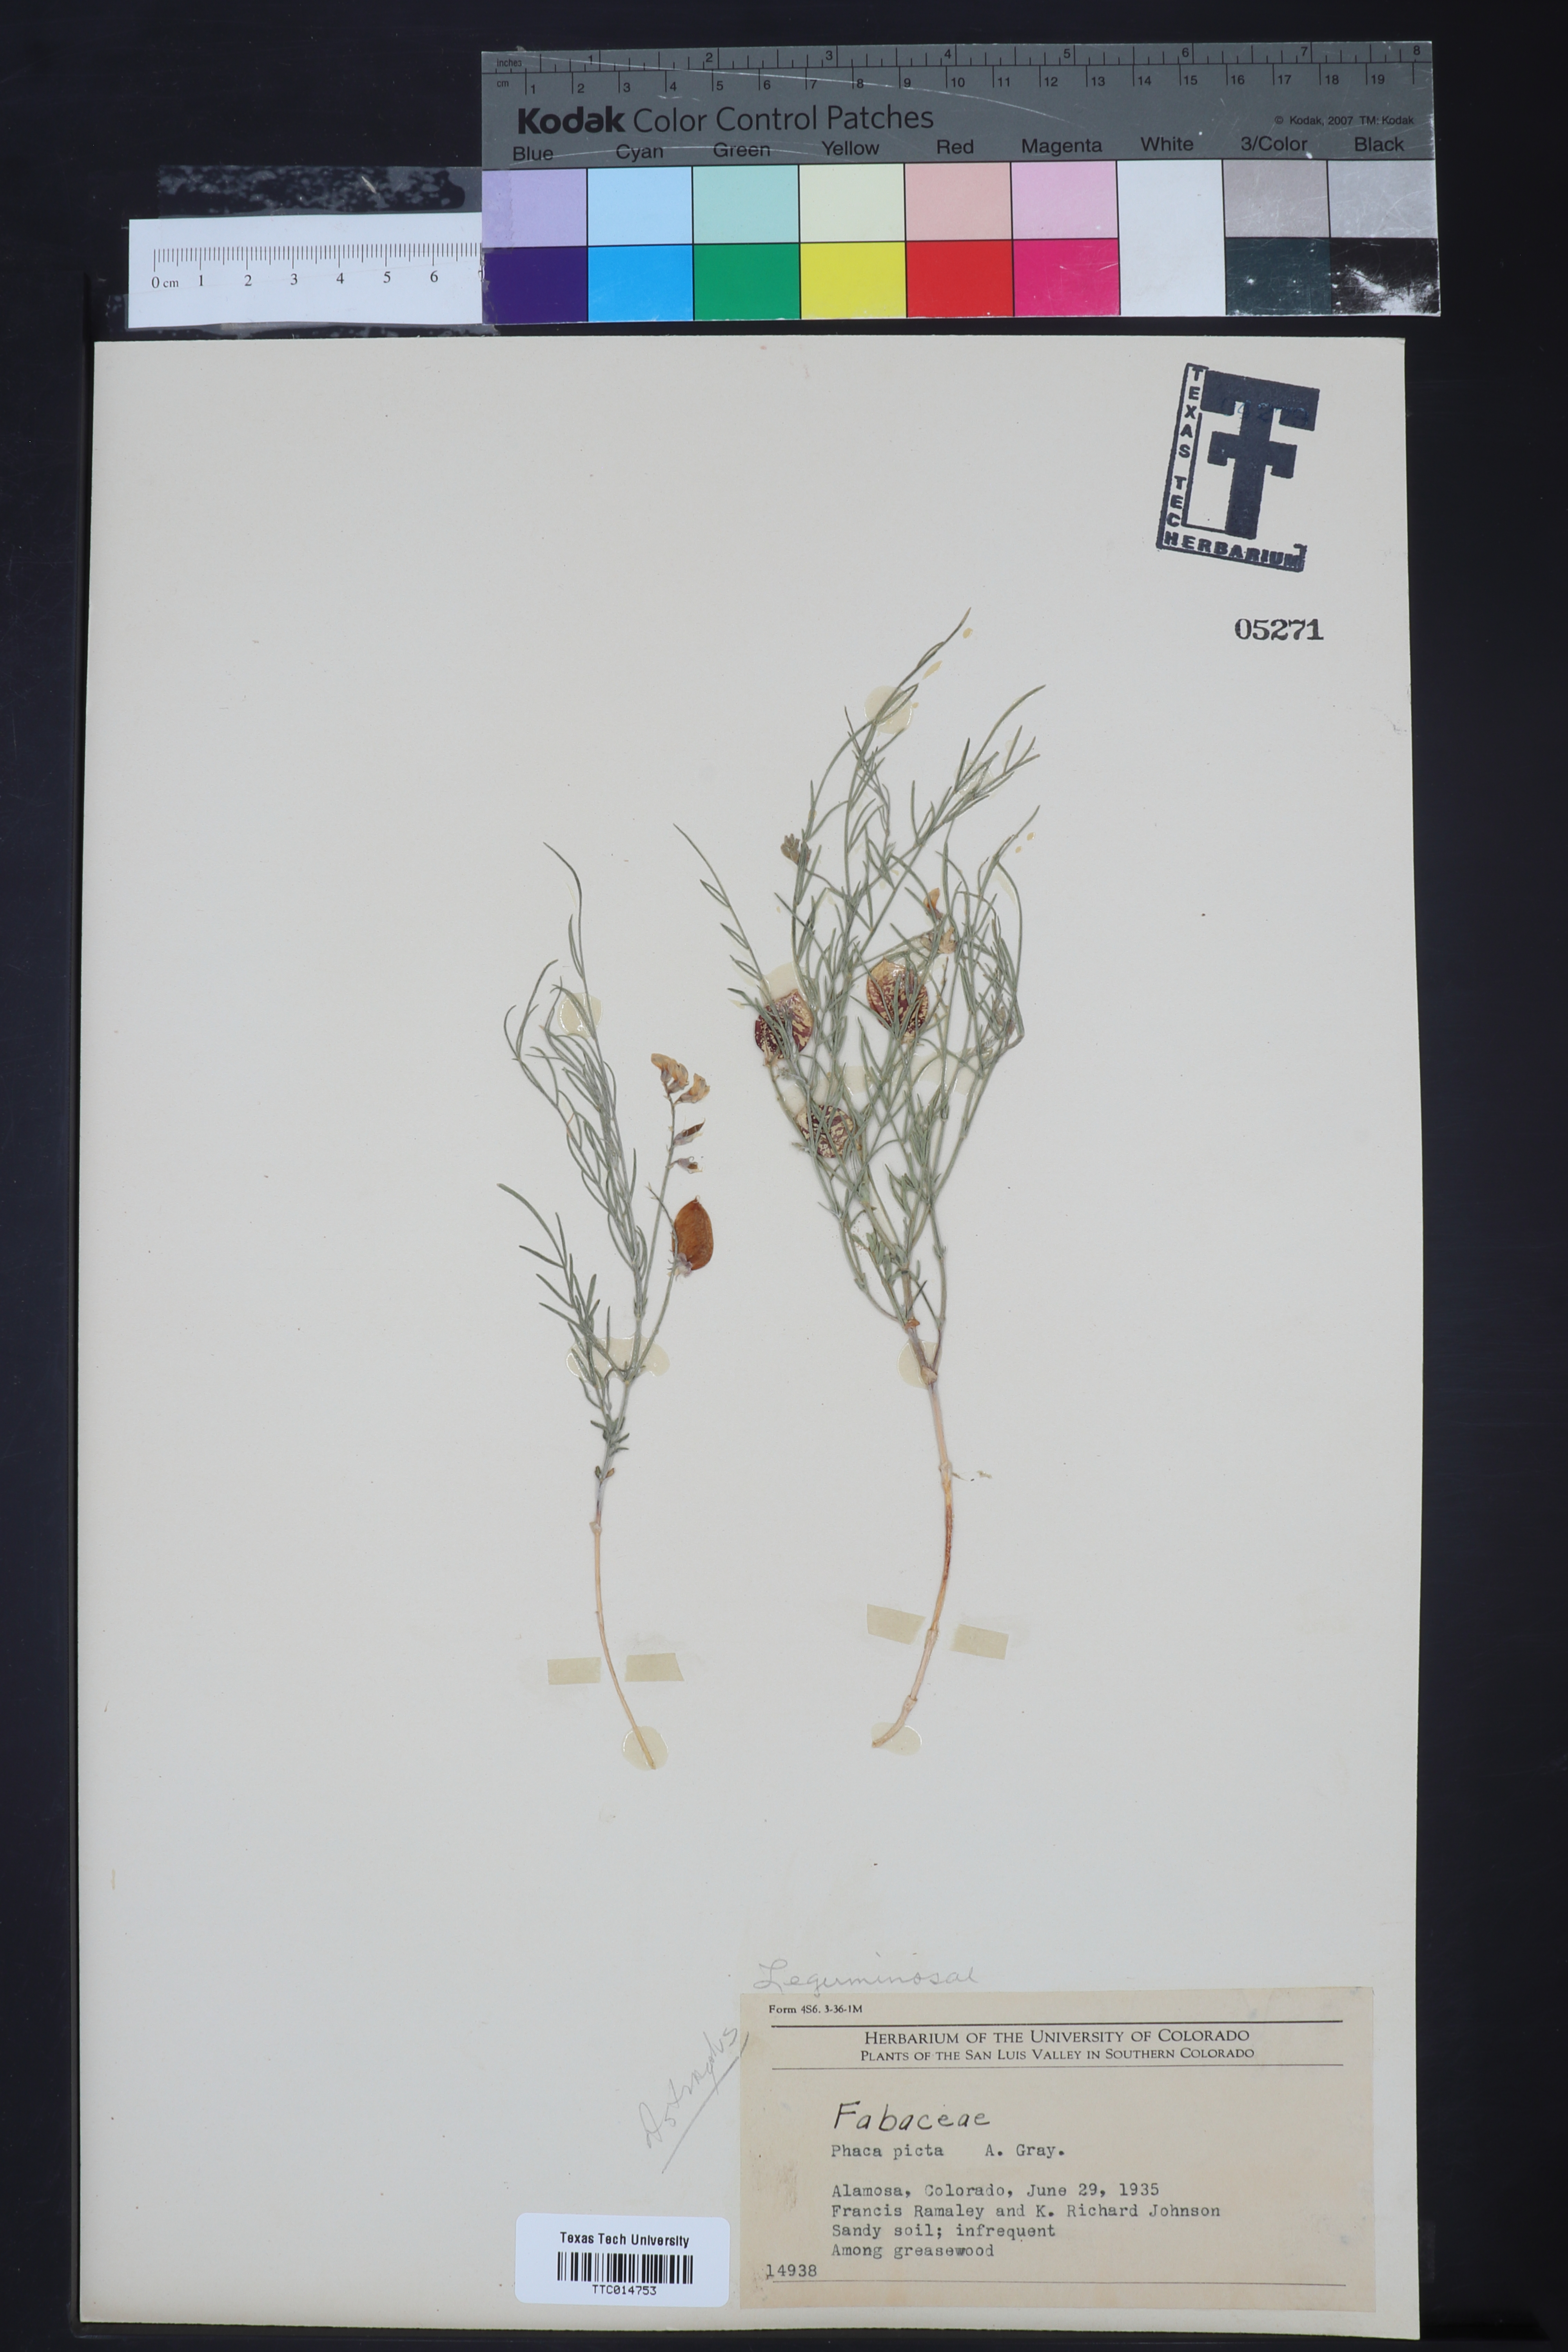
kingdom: Plantae
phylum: Tracheophyta
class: Magnoliopsida
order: Fabales
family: Fabaceae
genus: Astragalus
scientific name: Astragalus
